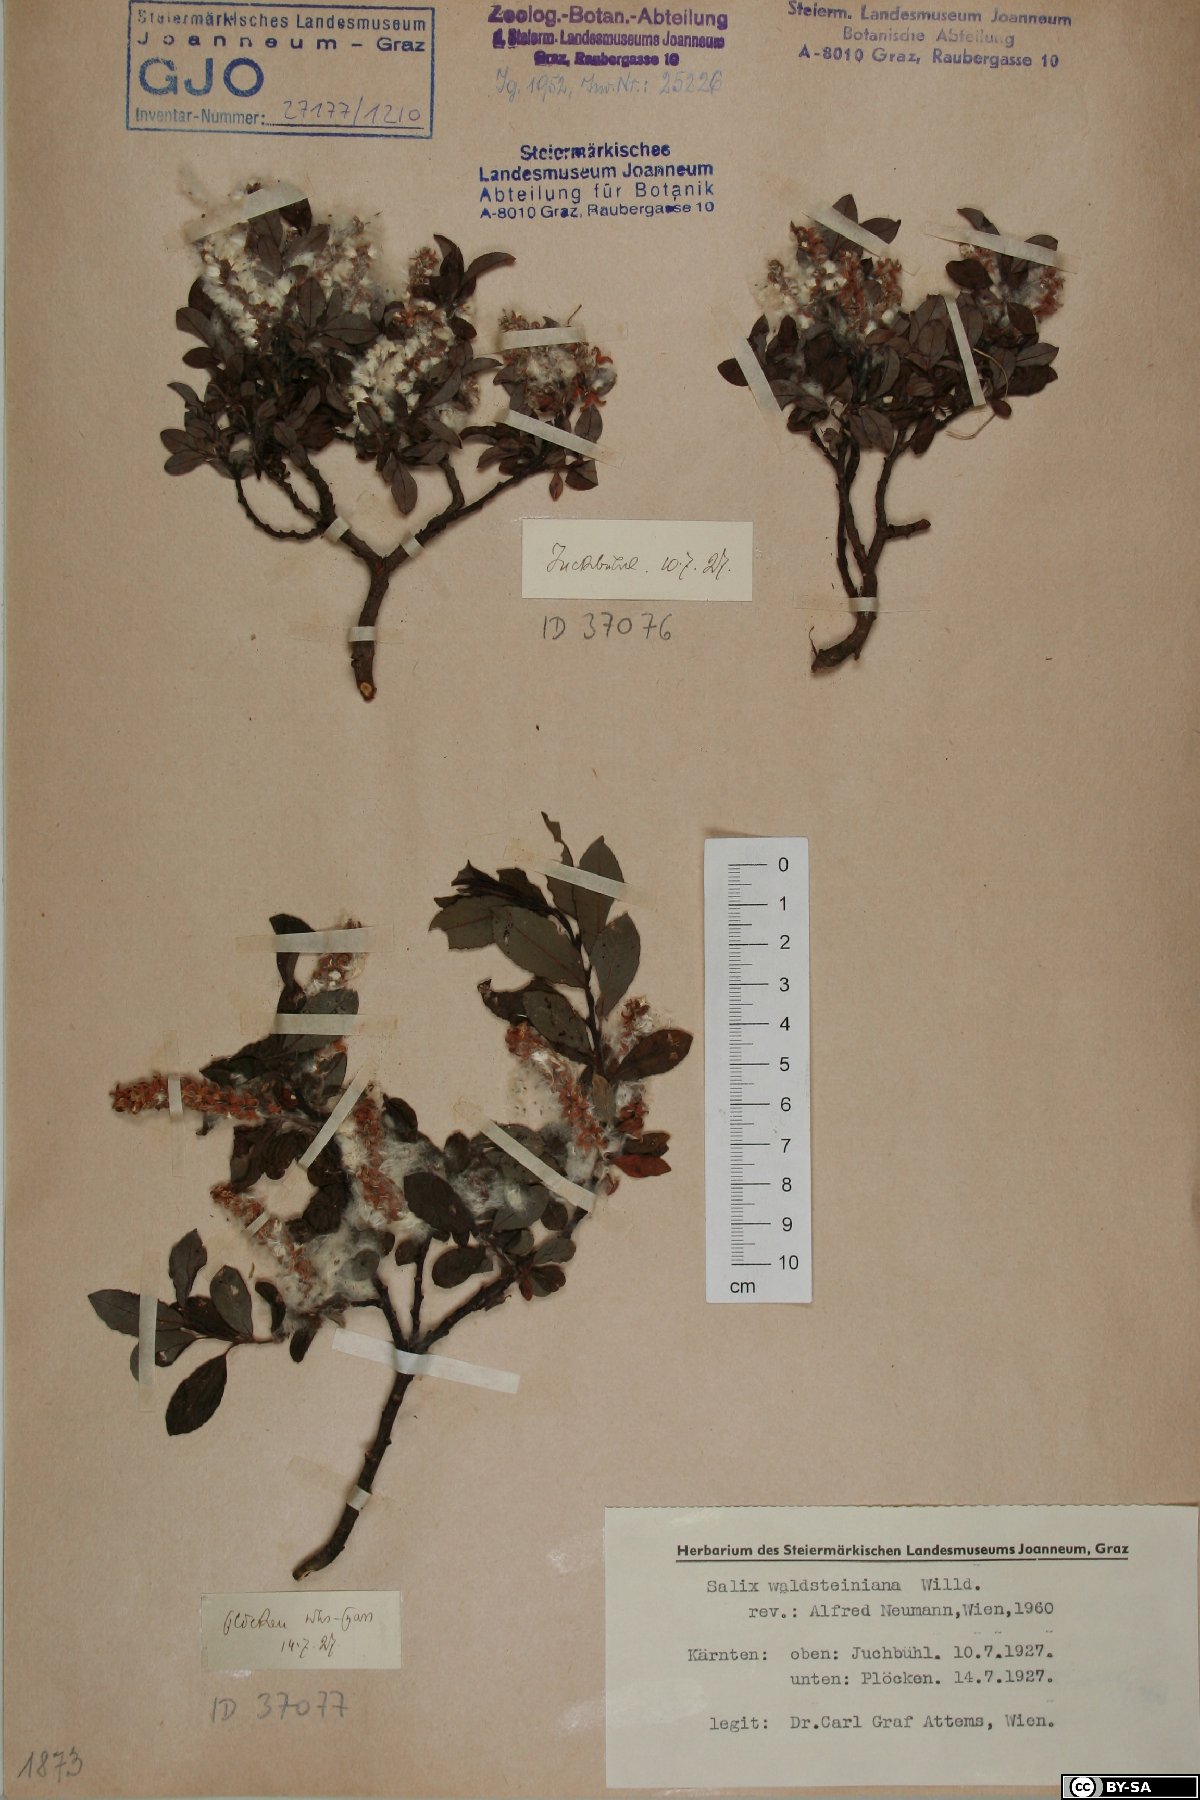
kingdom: Plantae
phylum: Tracheophyta
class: Magnoliopsida
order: Malpighiales
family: Salicaceae
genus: Salix
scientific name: Salix waldsteiniana
